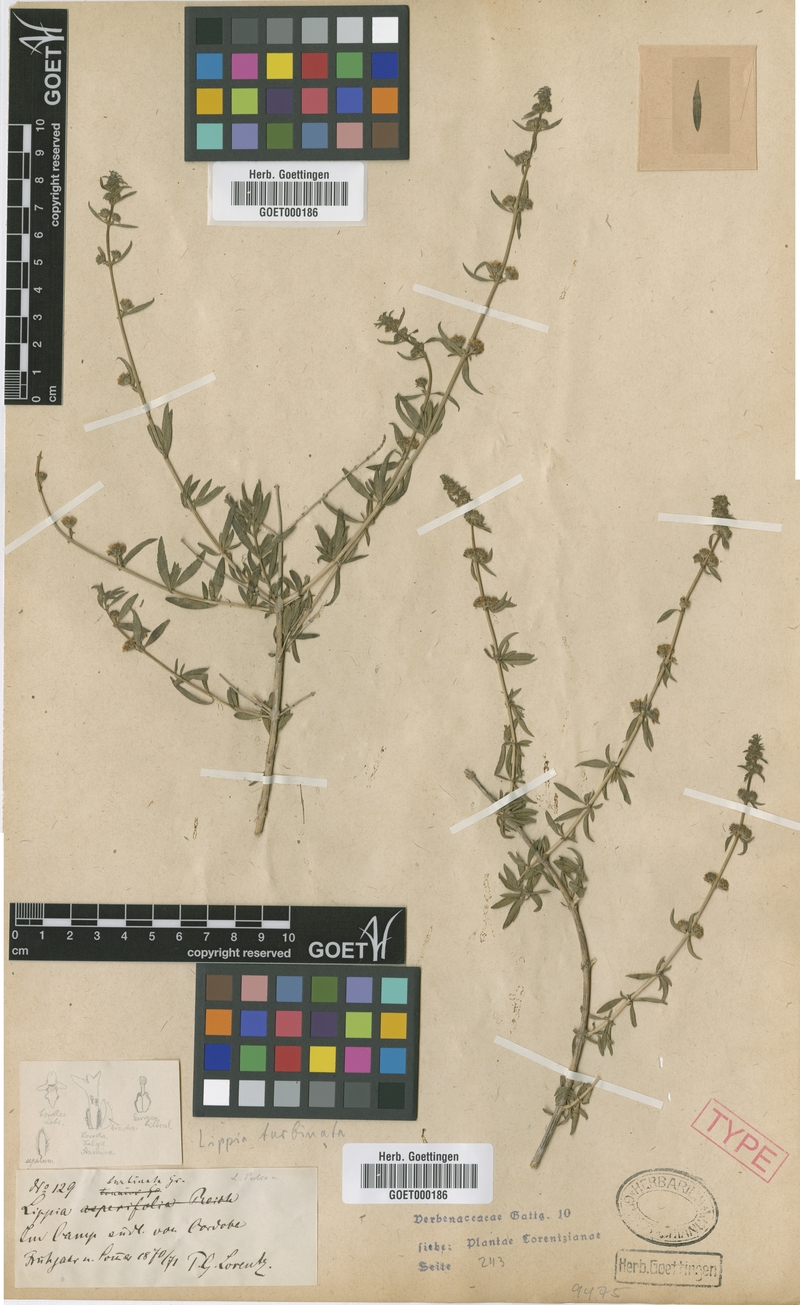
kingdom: Plantae
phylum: Tracheophyta
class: Magnoliopsida
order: Lamiales
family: Verbenaceae
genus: Lippia
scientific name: Lippia turbinata
